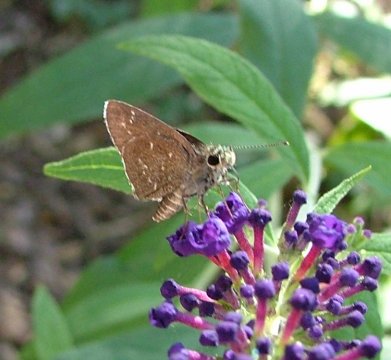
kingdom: Animalia
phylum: Arthropoda
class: Insecta
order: Lepidoptera
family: Hesperiidae
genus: Mastor
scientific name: Mastor celia
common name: Celia's Roadside-Skipper
